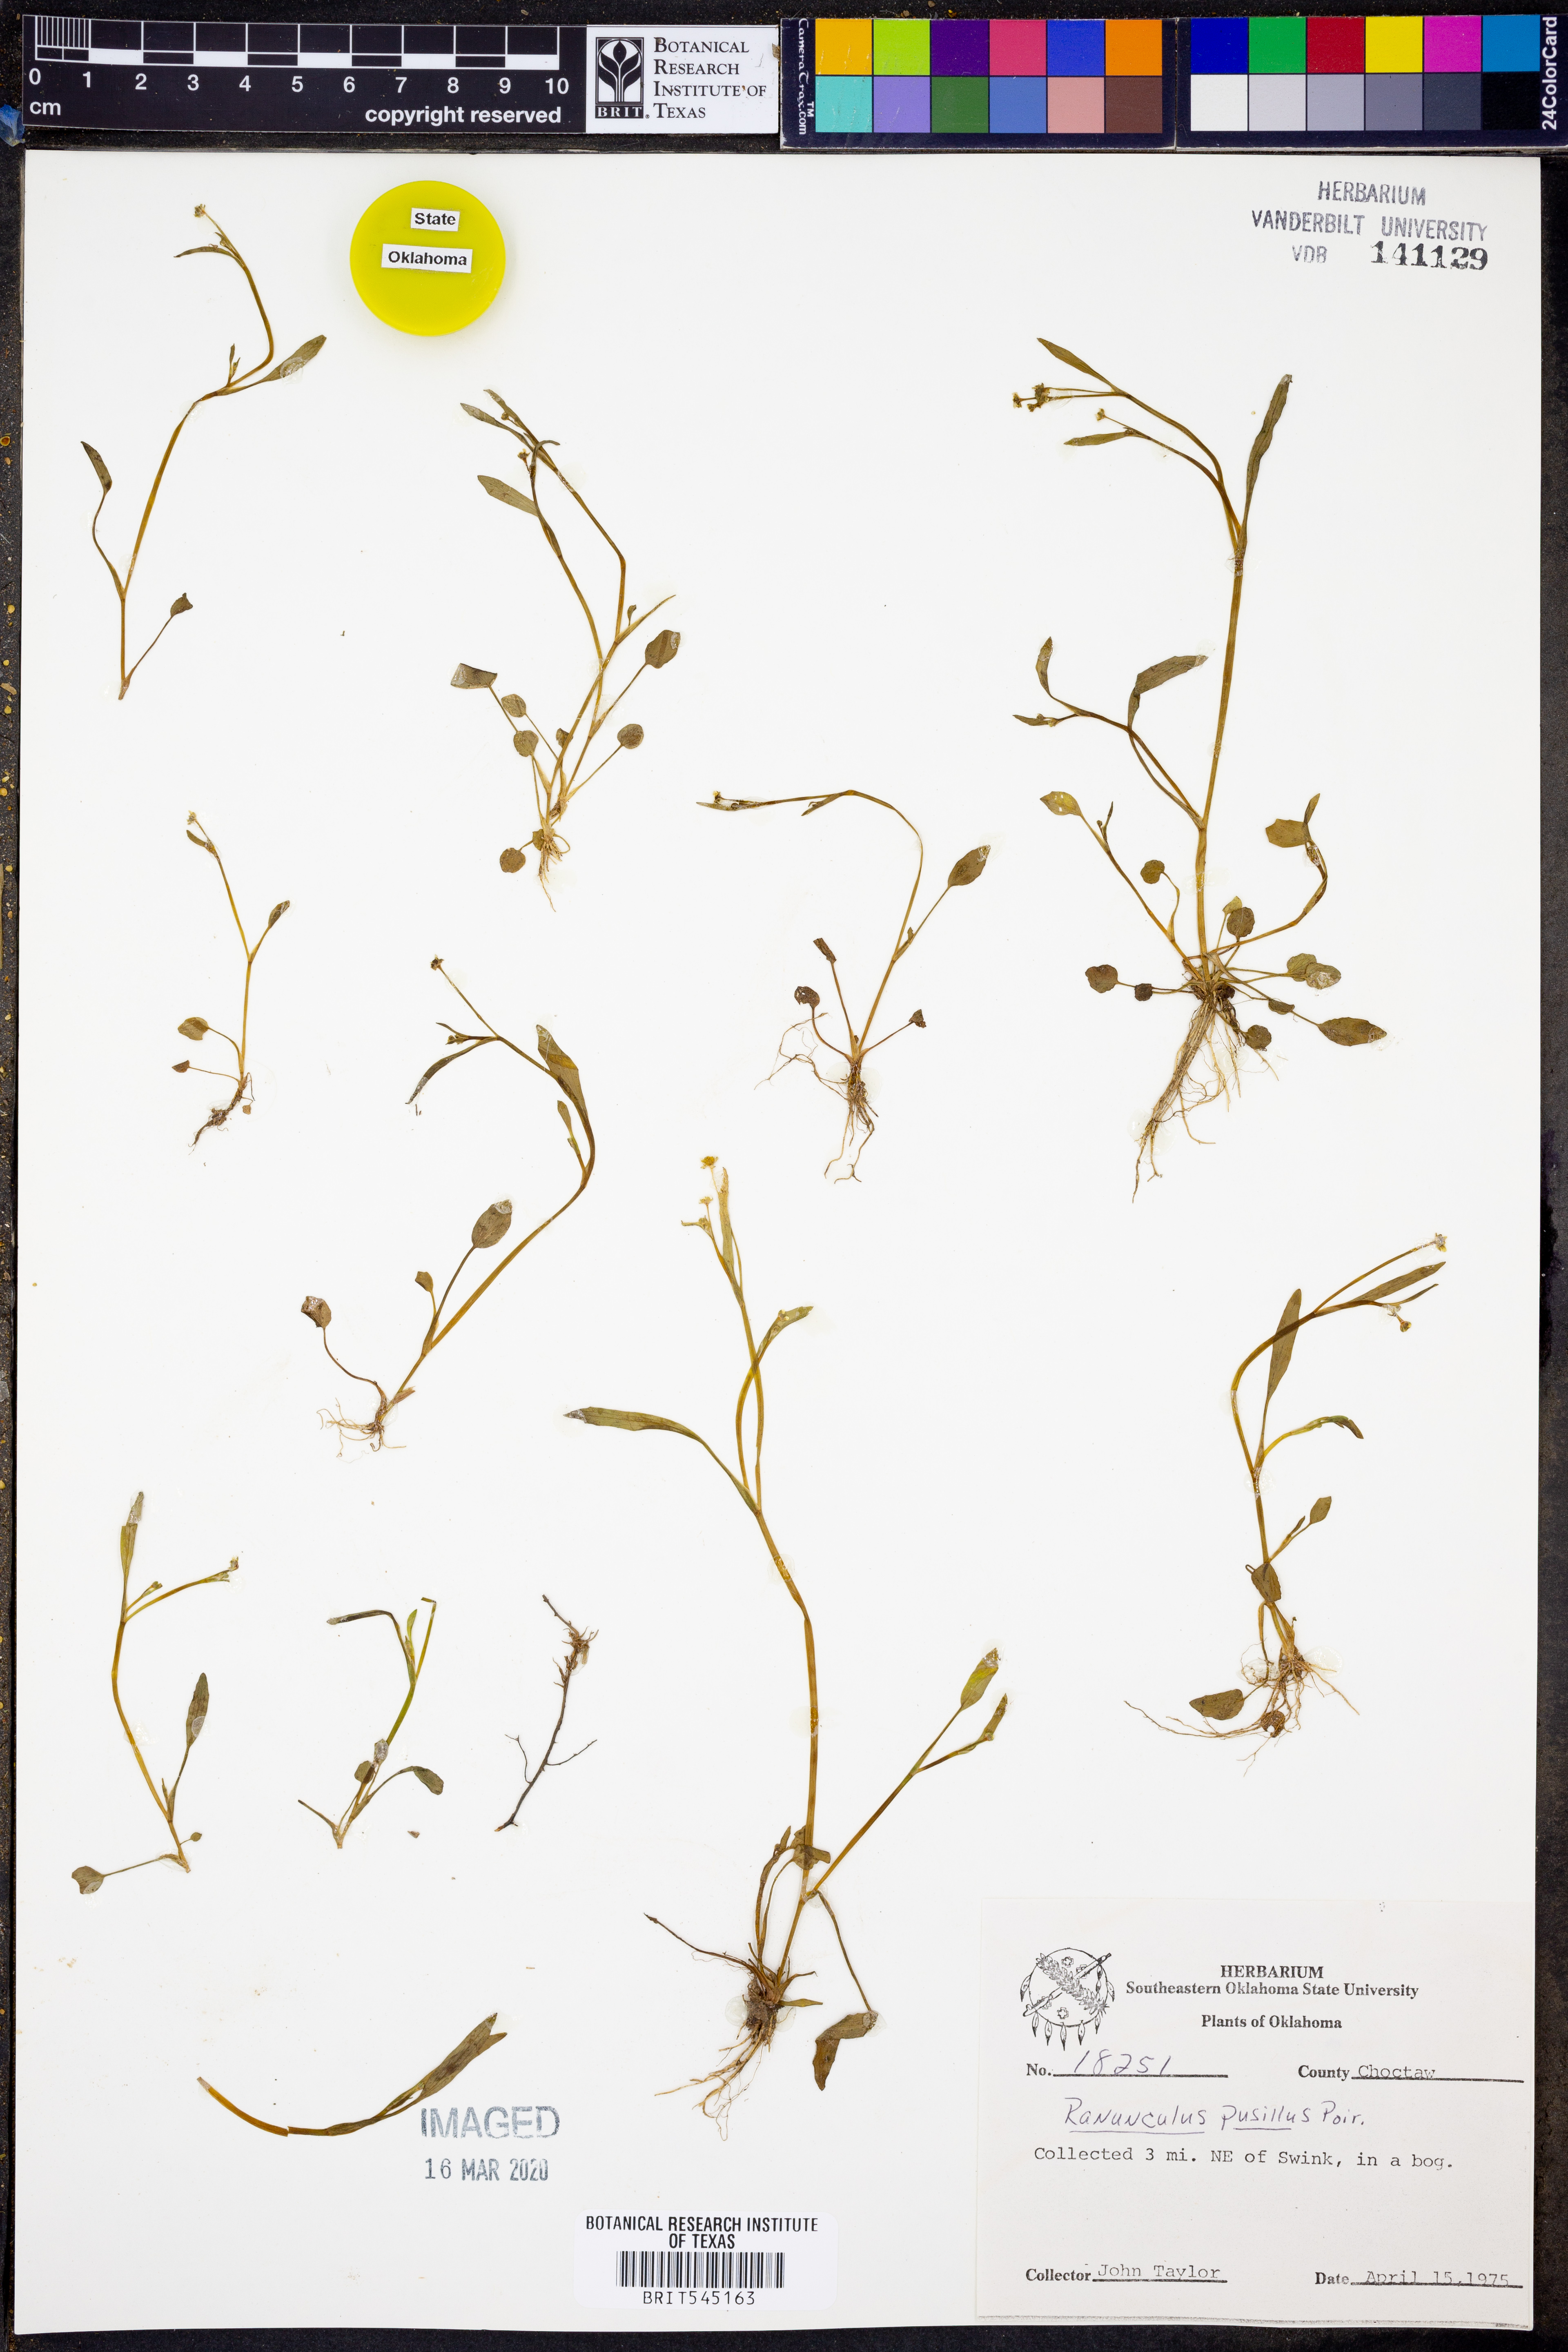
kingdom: Plantae
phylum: Tracheophyta
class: Magnoliopsida
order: Ranunculales
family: Ranunculaceae
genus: Ranunculus
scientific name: Ranunculus pusillus
